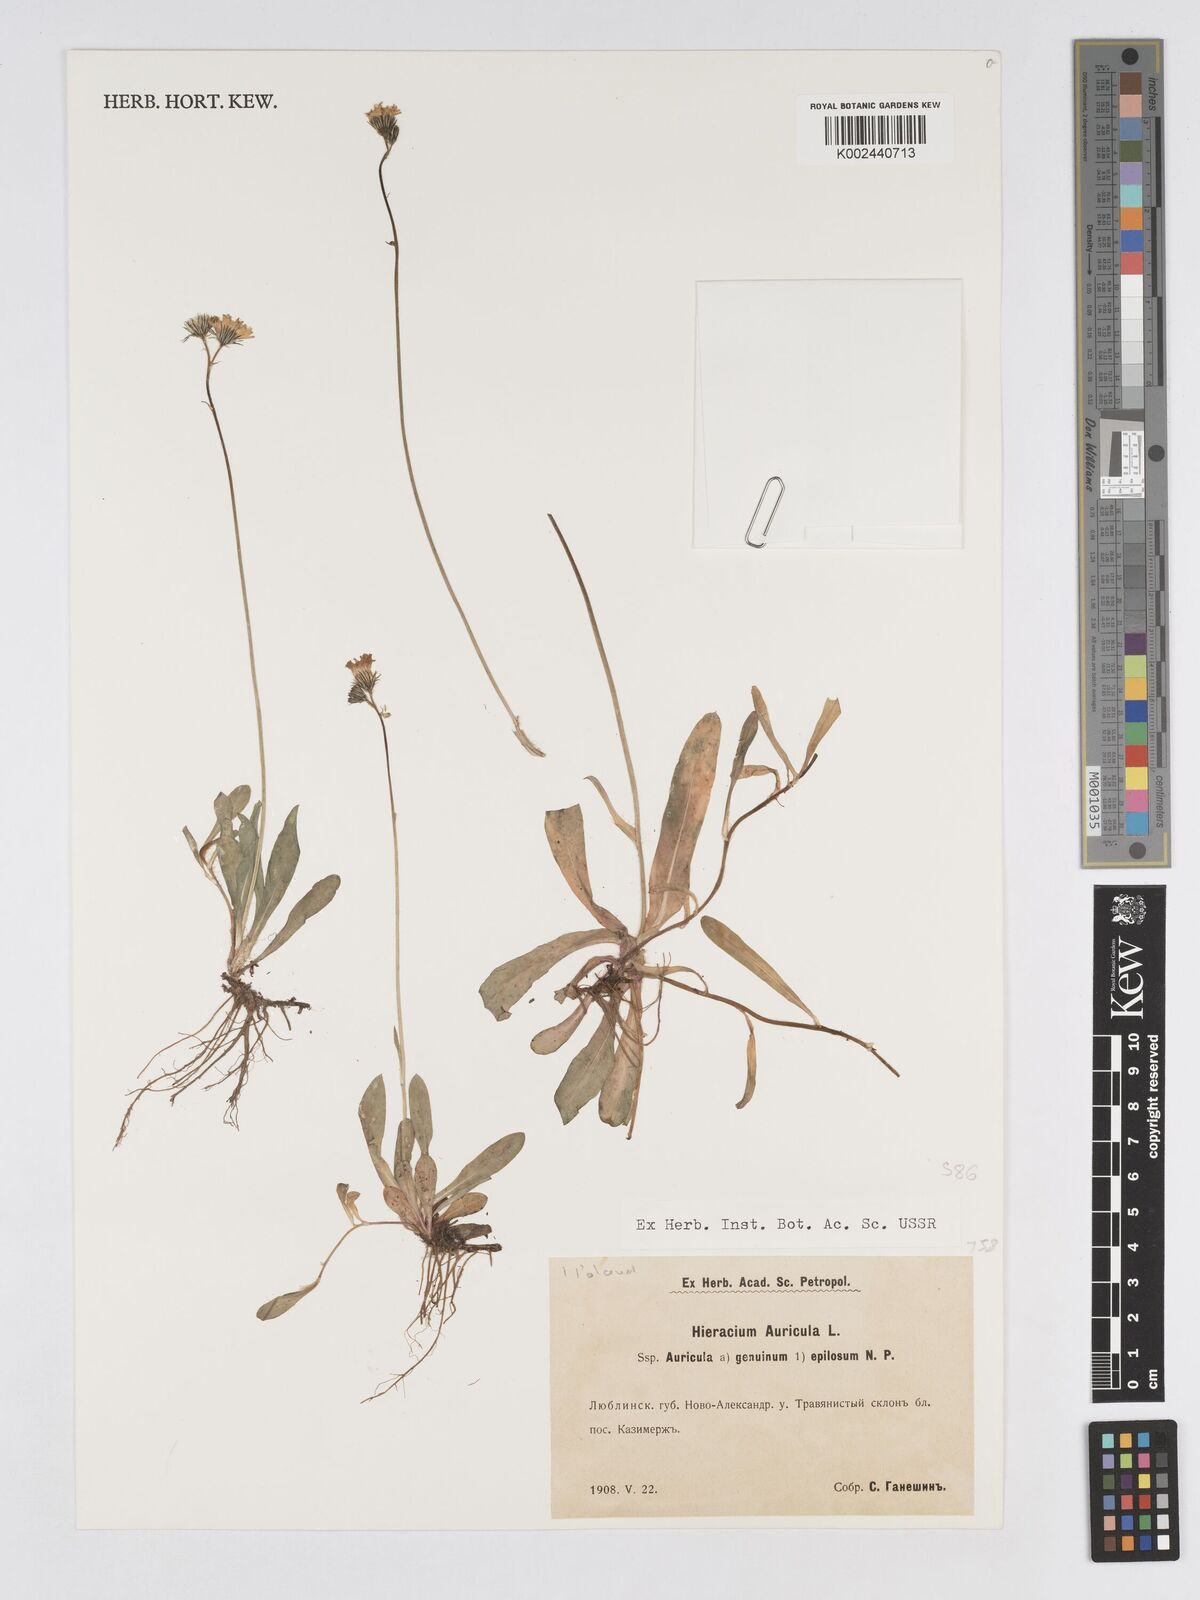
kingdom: Plantae
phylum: Tracheophyta
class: Magnoliopsida
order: Asterales
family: Asteraceae
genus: Pilosella
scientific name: Pilosella floribunda
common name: Glaucous hawkweed
